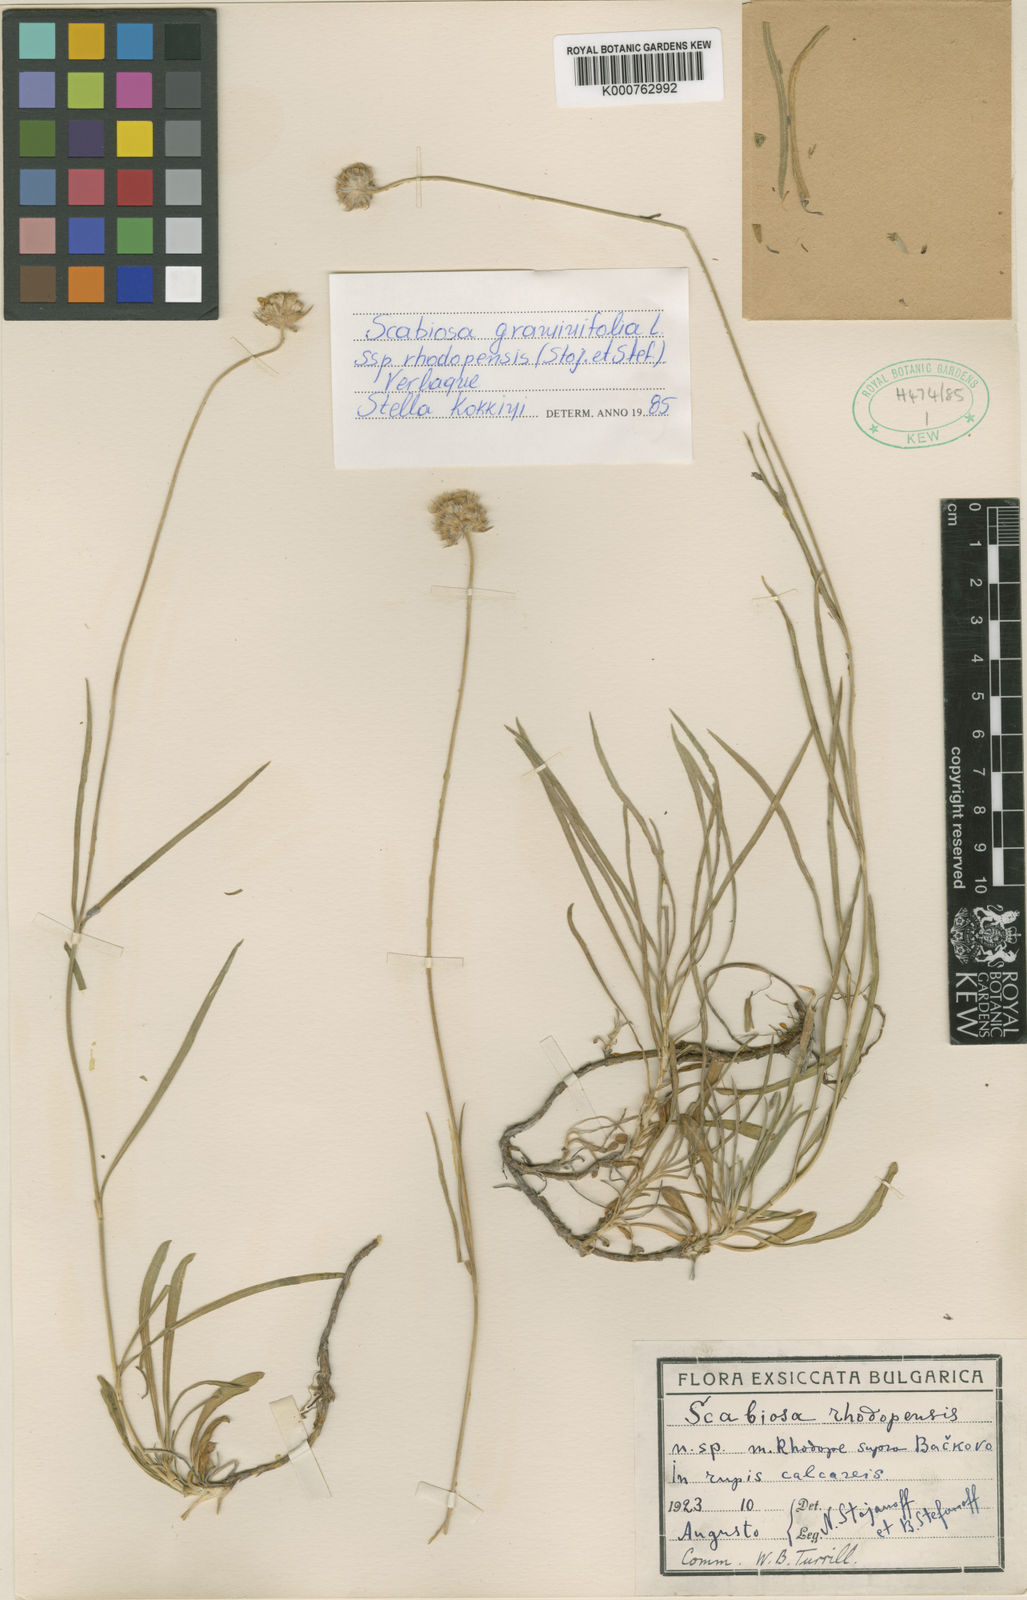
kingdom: Plantae
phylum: Tracheophyta
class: Magnoliopsida
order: Dipsacales
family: Caprifoliaceae
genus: Lomelosia
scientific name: Lomelosia rhodopensis
